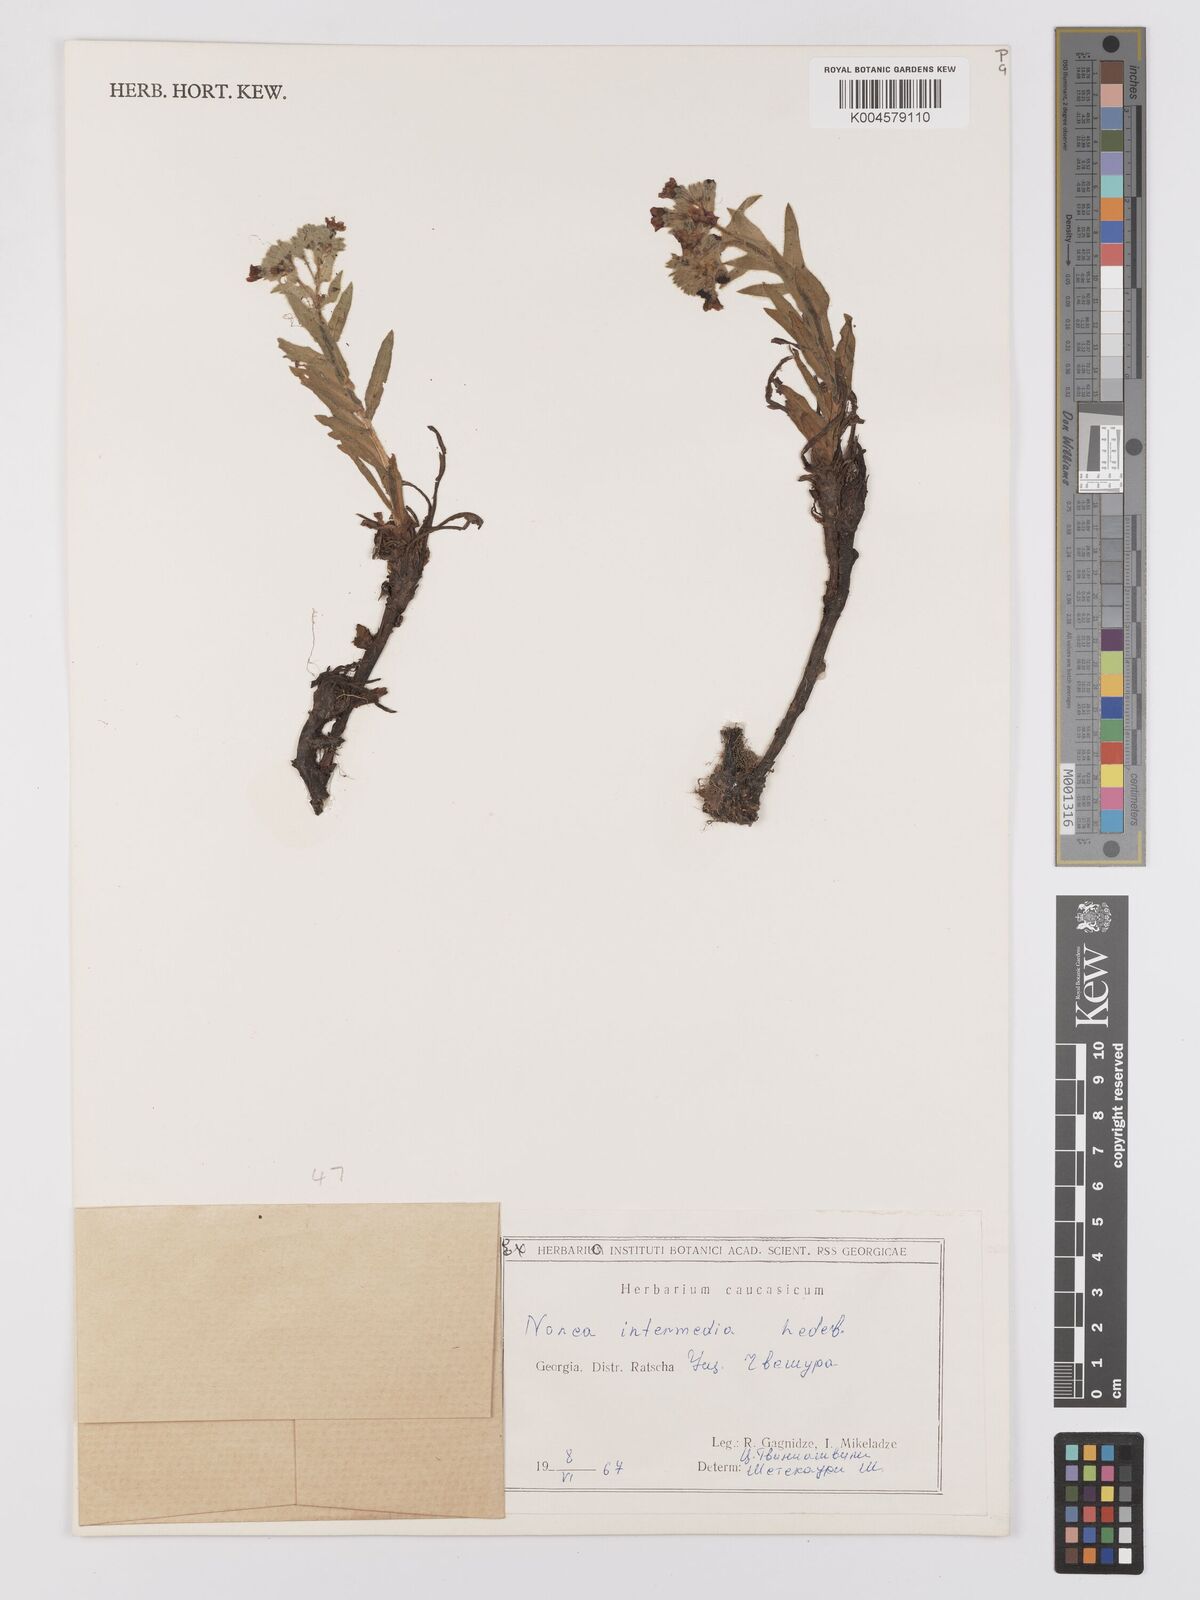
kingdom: Plantae
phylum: Tracheophyta
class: Magnoliopsida
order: Boraginales
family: Boraginaceae
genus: Nonea
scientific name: Nonea intermedia
